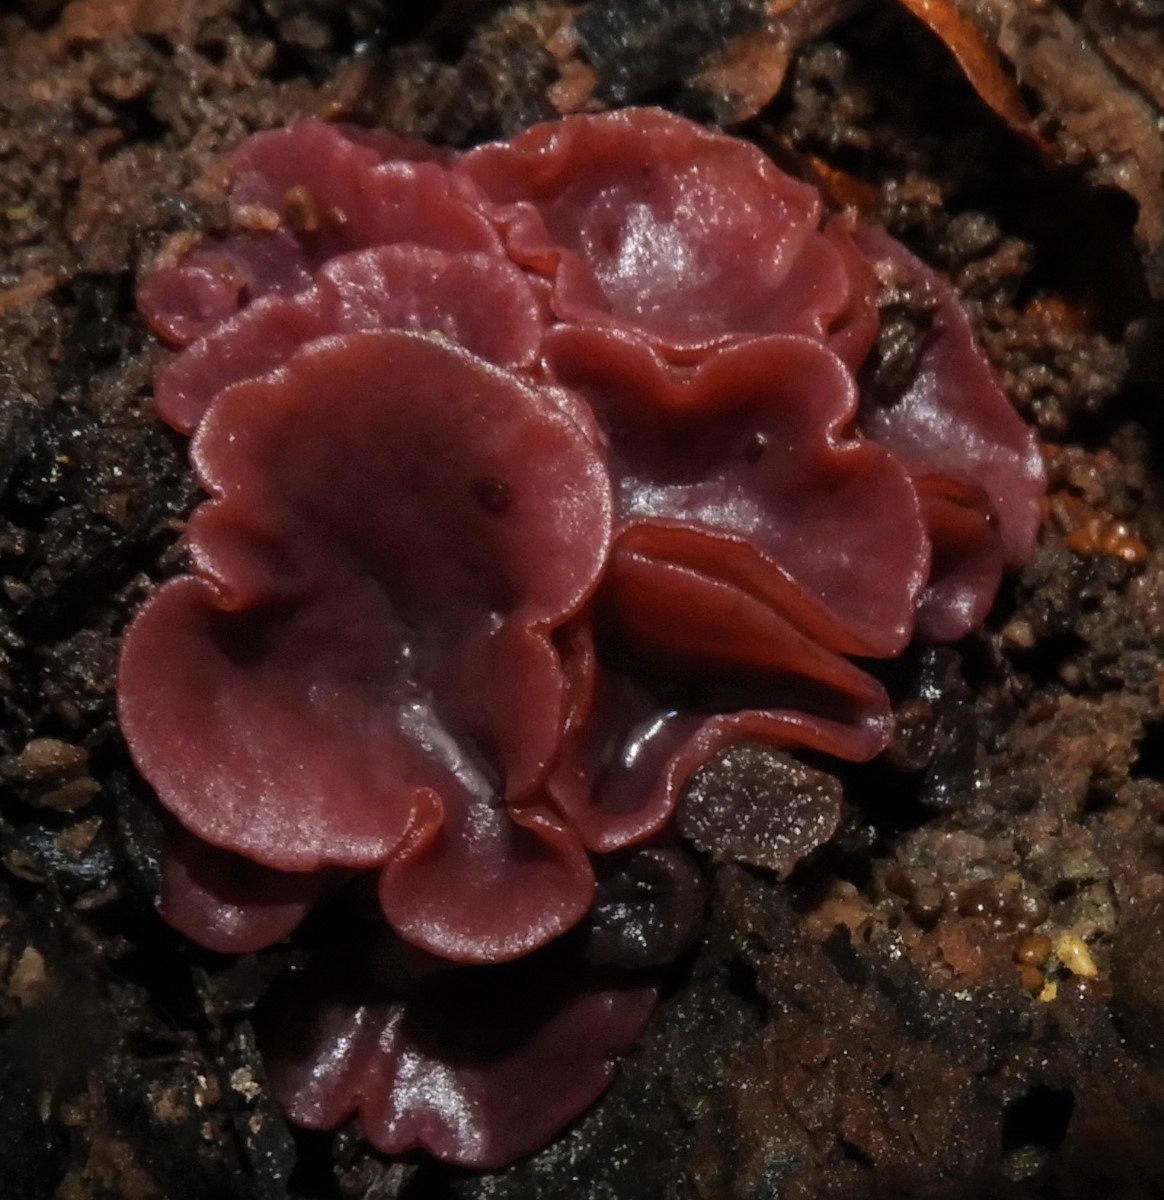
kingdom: Fungi
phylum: Ascomycota
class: Leotiomycetes
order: Helotiales
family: Gelatinodiscaceae
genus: Ascocoryne
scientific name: Ascocoryne cylichnium
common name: stor sejskive
